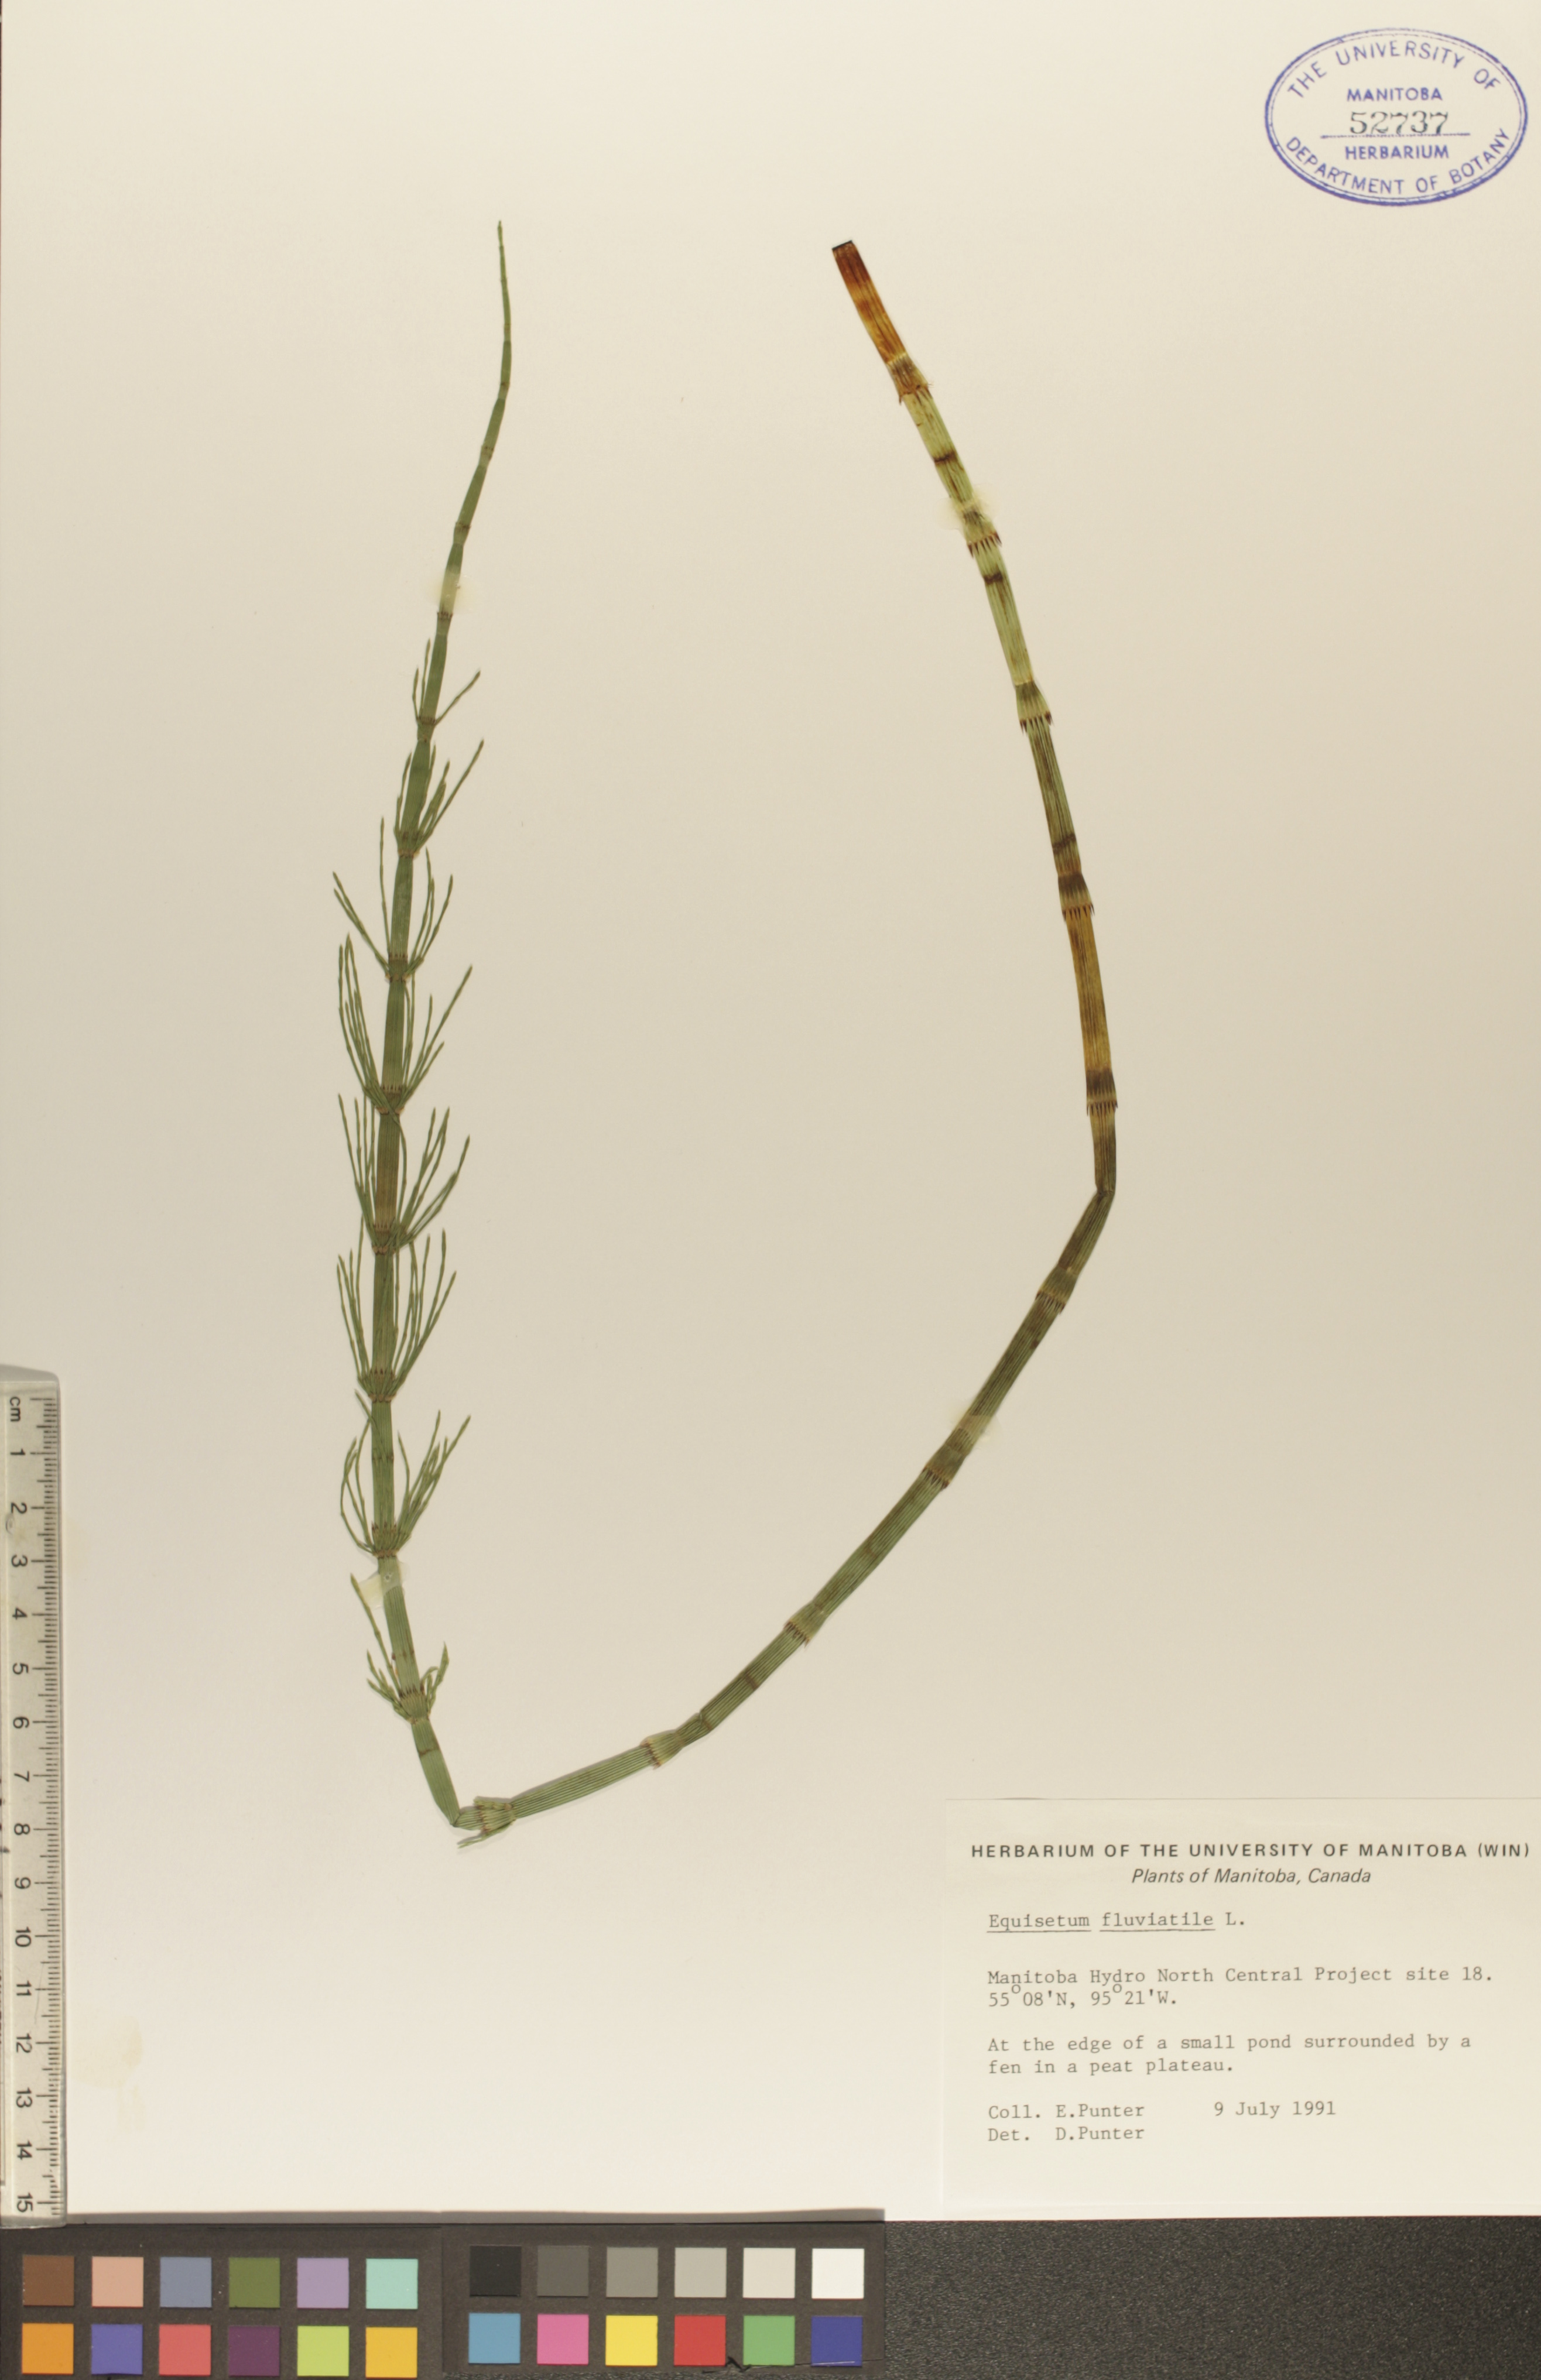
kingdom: Plantae
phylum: Tracheophyta
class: Polypodiopsida
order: Equisetales
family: Equisetaceae
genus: Equisetum
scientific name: Equisetum fluviatile
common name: Water horsetail
